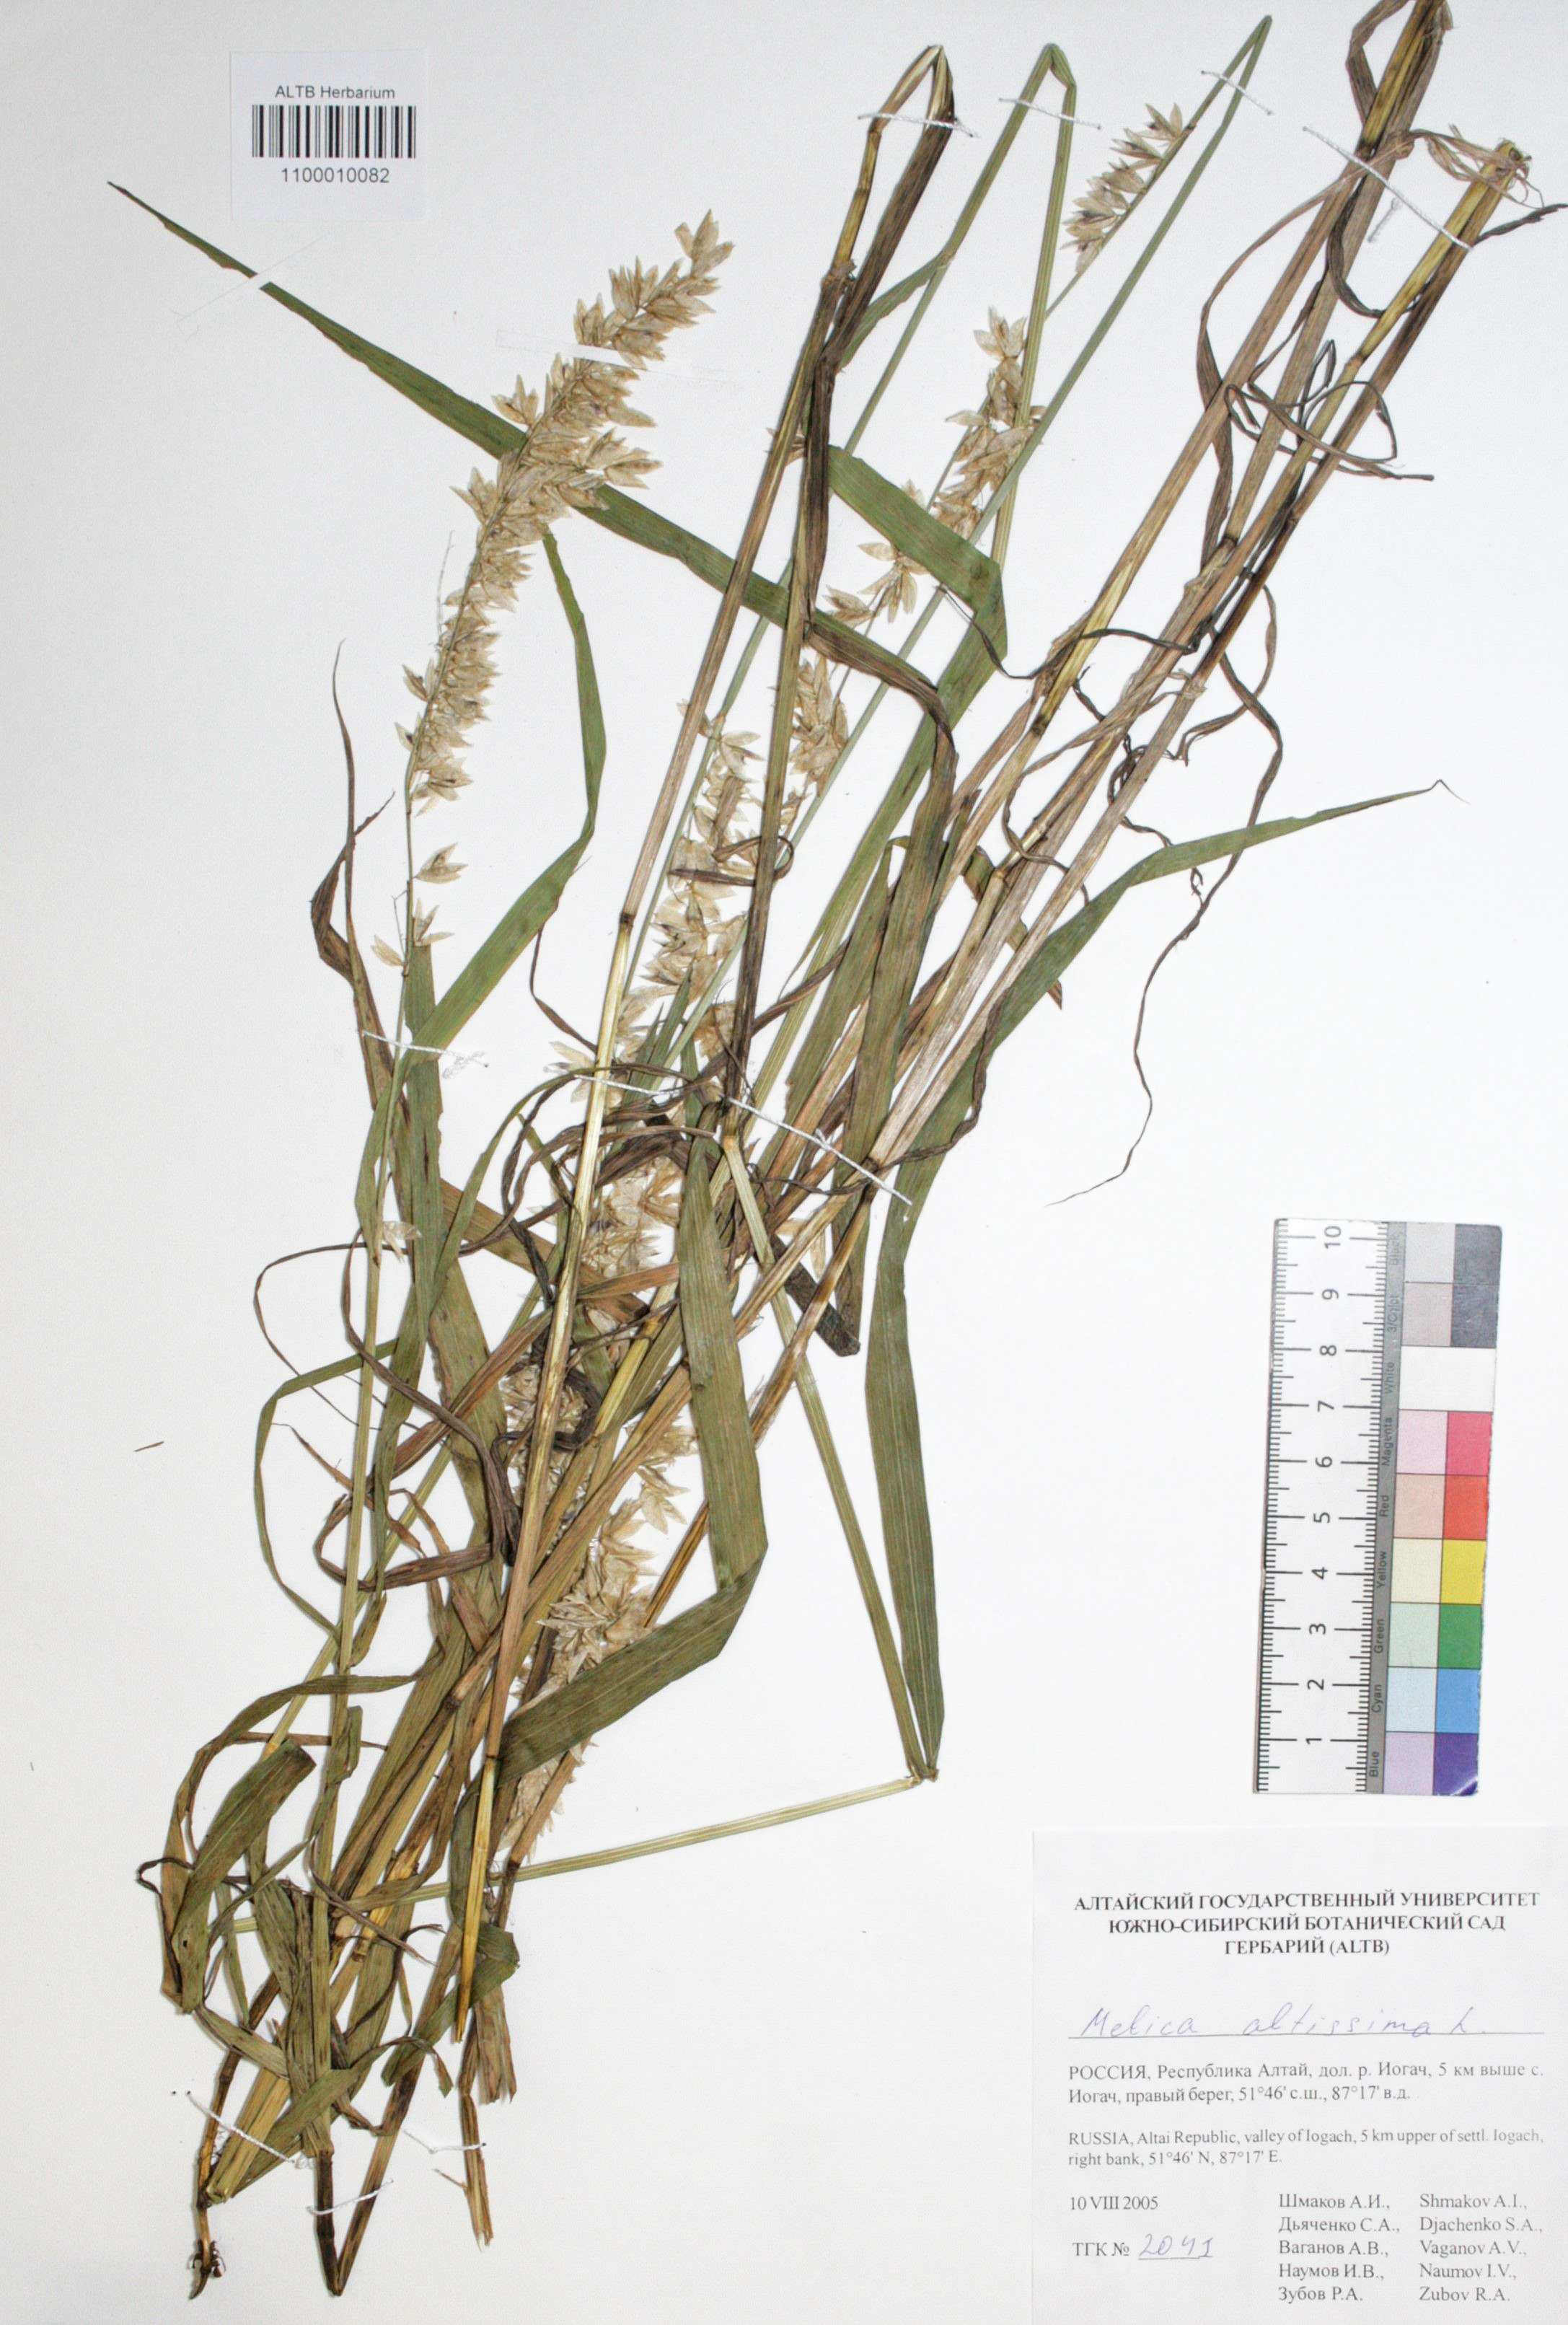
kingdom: Plantae
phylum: Tracheophyta
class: Liliopsida
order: Poales
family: Poaceae
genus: Melica
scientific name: Melica altissima
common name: Siberian melicgrass
